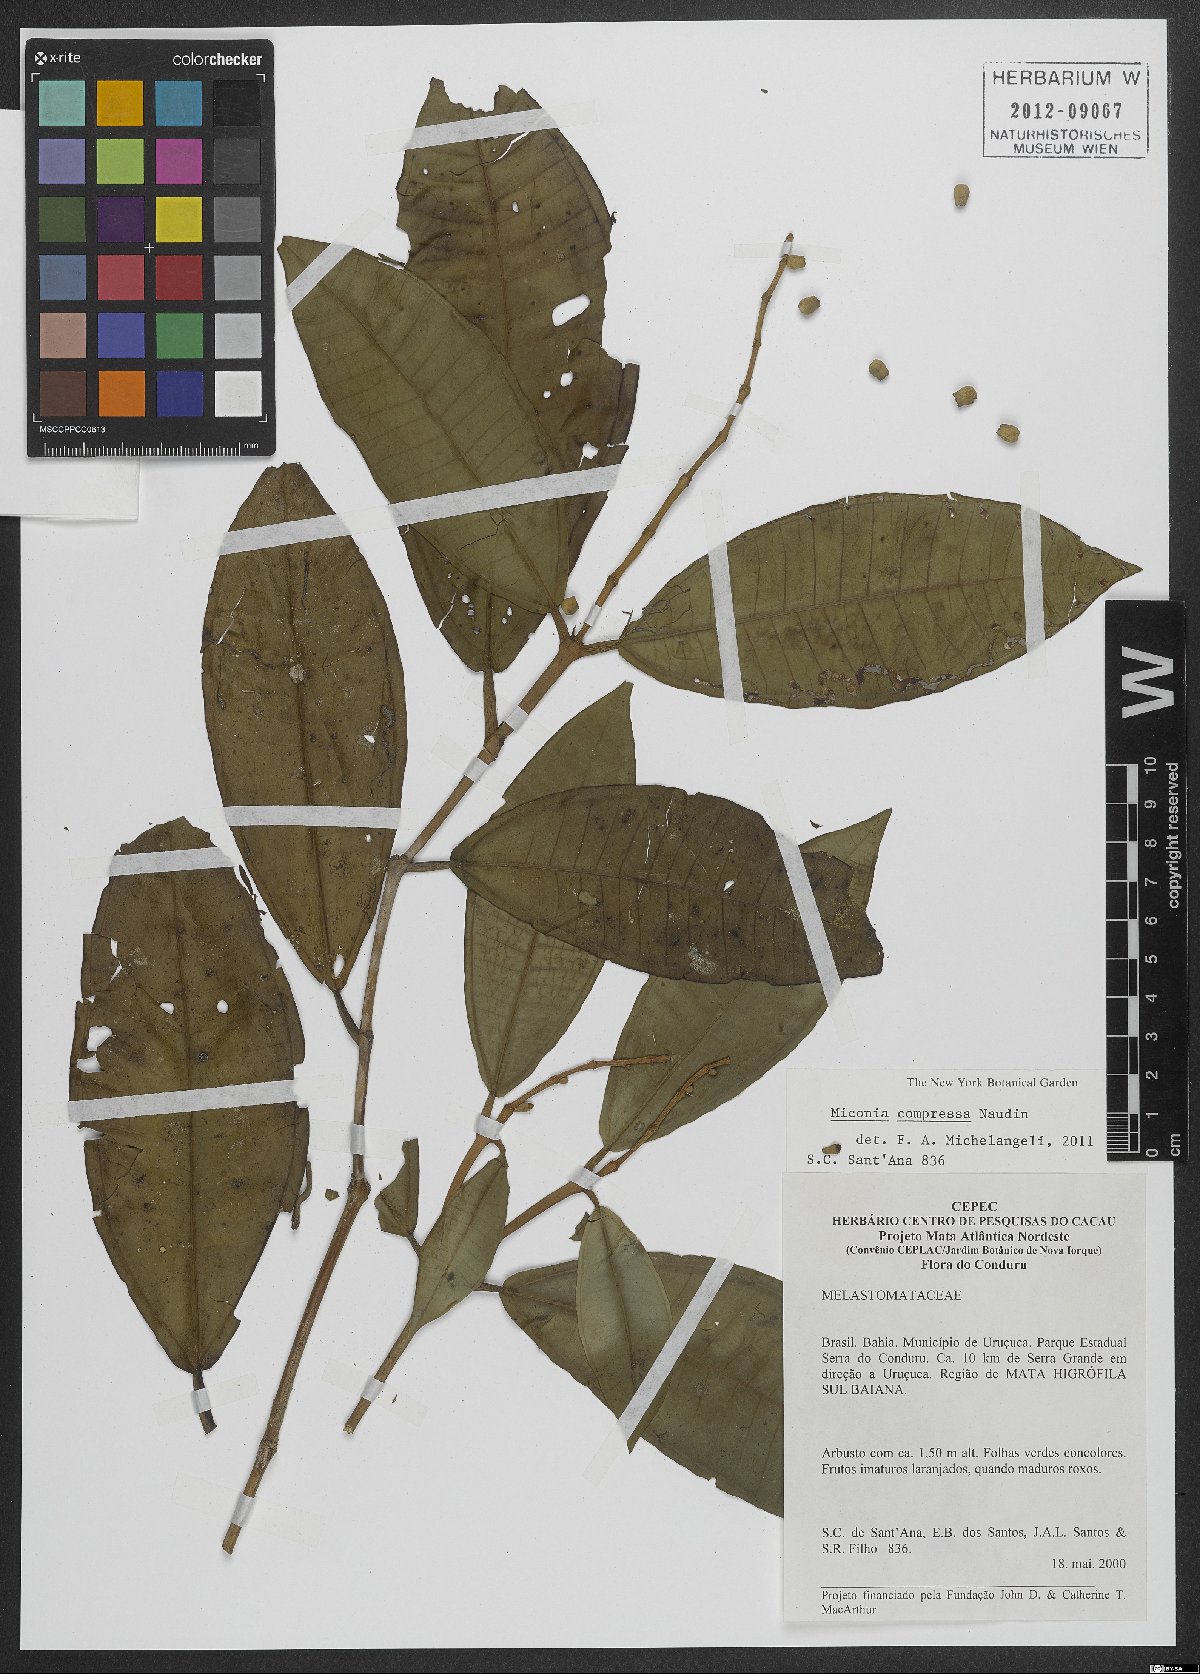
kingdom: Plantae
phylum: Tracheophyta
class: Magnoliopsida
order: Myrtales
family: Melastomataceae
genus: Miconia
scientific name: Miconia compressa
